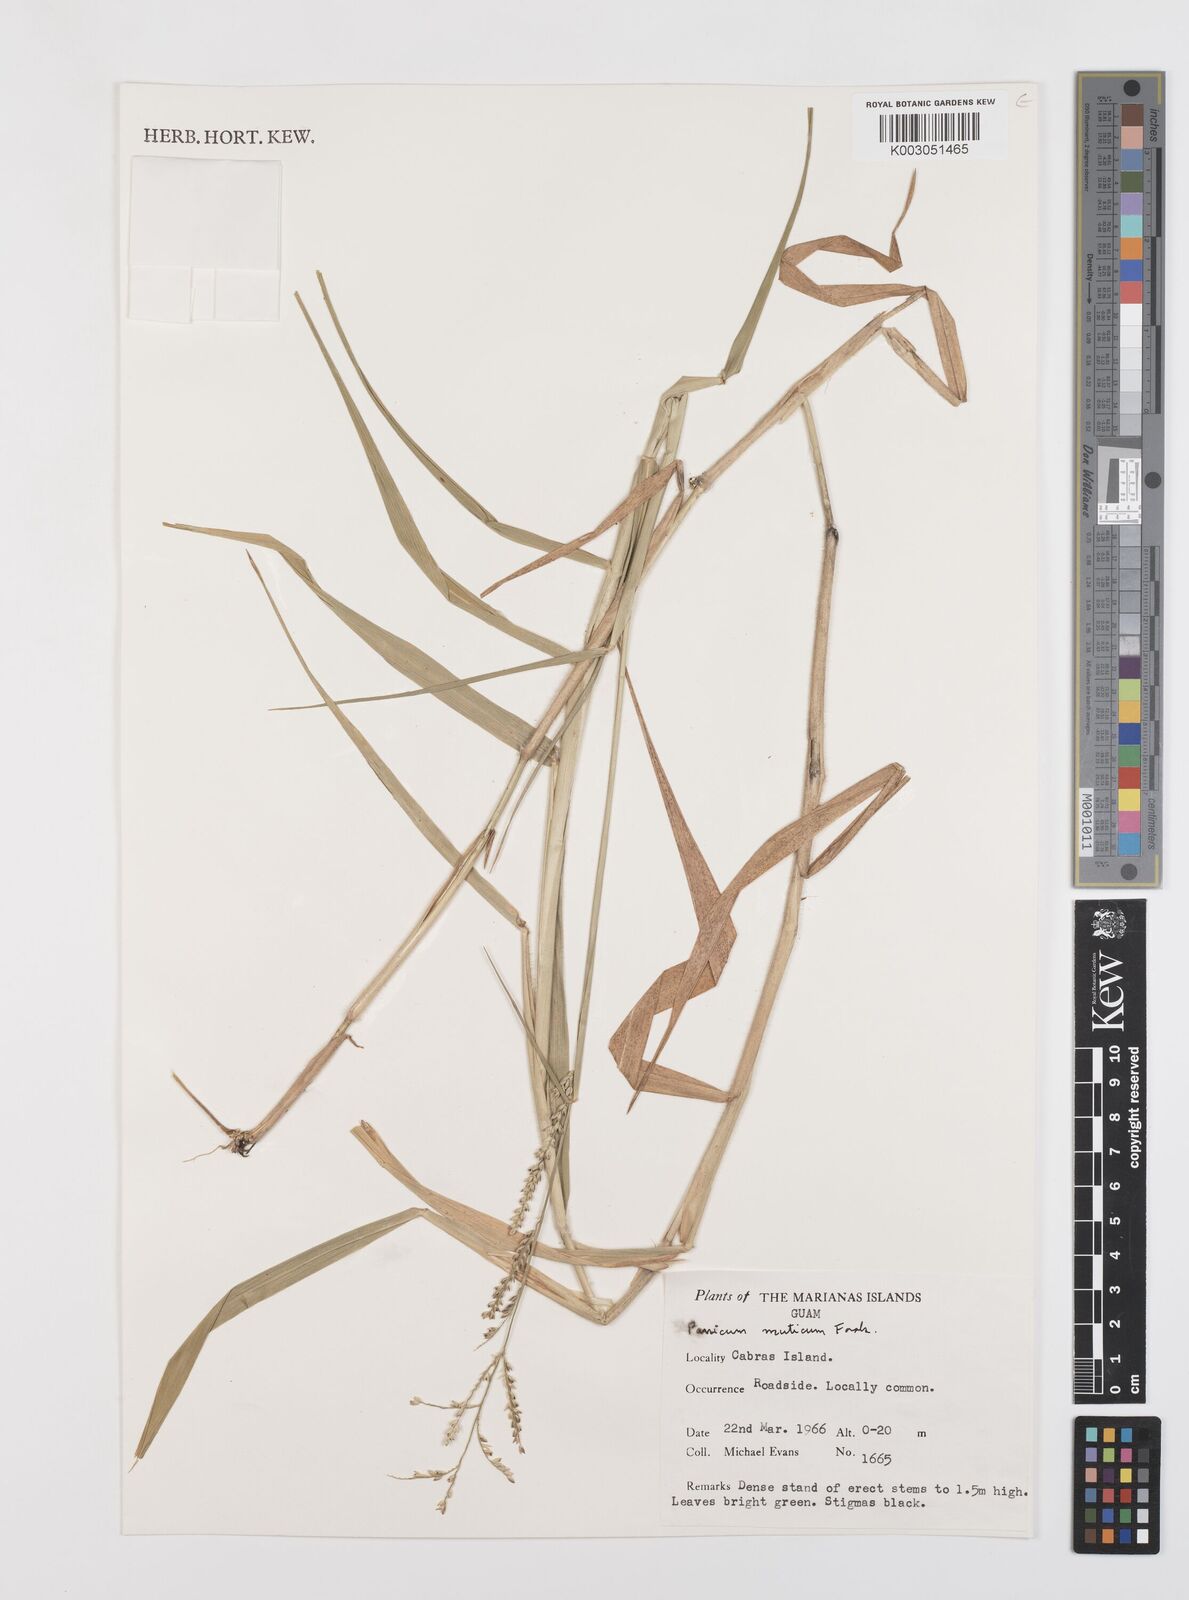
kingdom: Plantae
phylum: Tracheophyta
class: Liliopsida
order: Poales
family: Poaceae
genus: Urochloa
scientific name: Urochloa mutica
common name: Para grass
